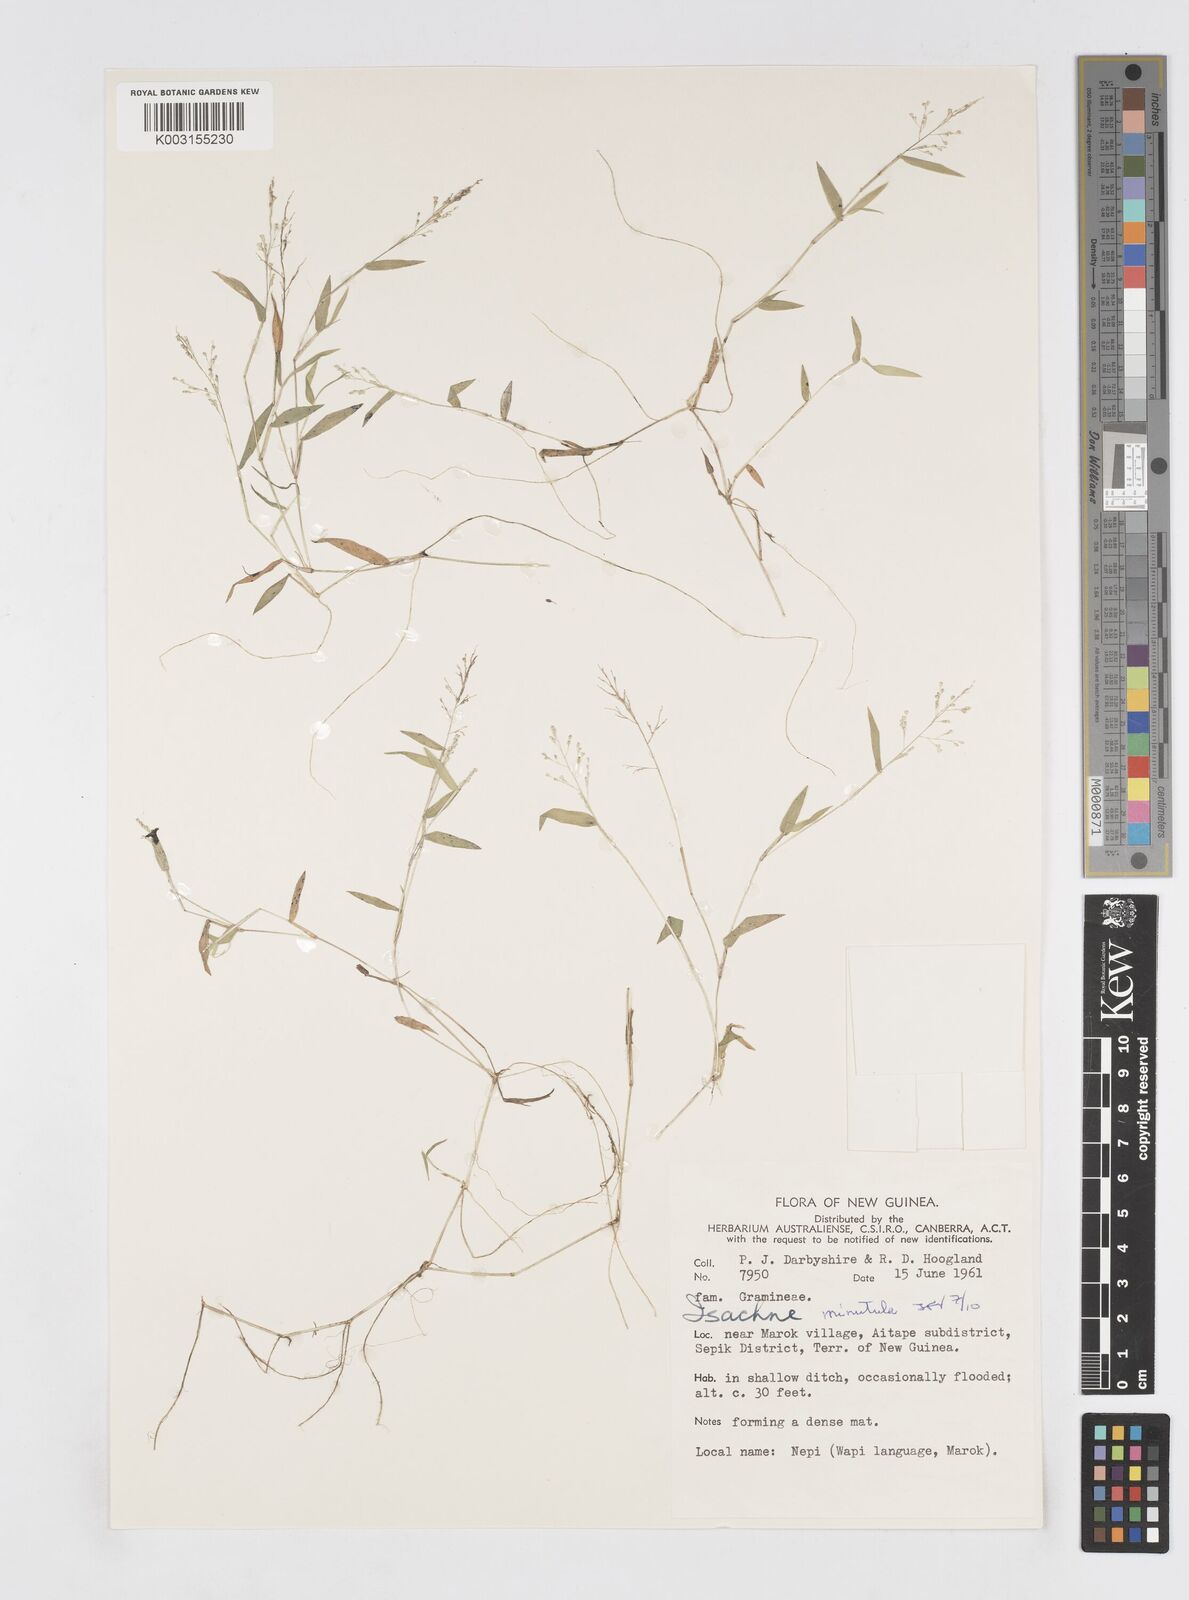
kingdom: Plantae
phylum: Tracheophyta
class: Liliopsida
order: Poales
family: Poaceae
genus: Isachne
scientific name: Isachne minutula
